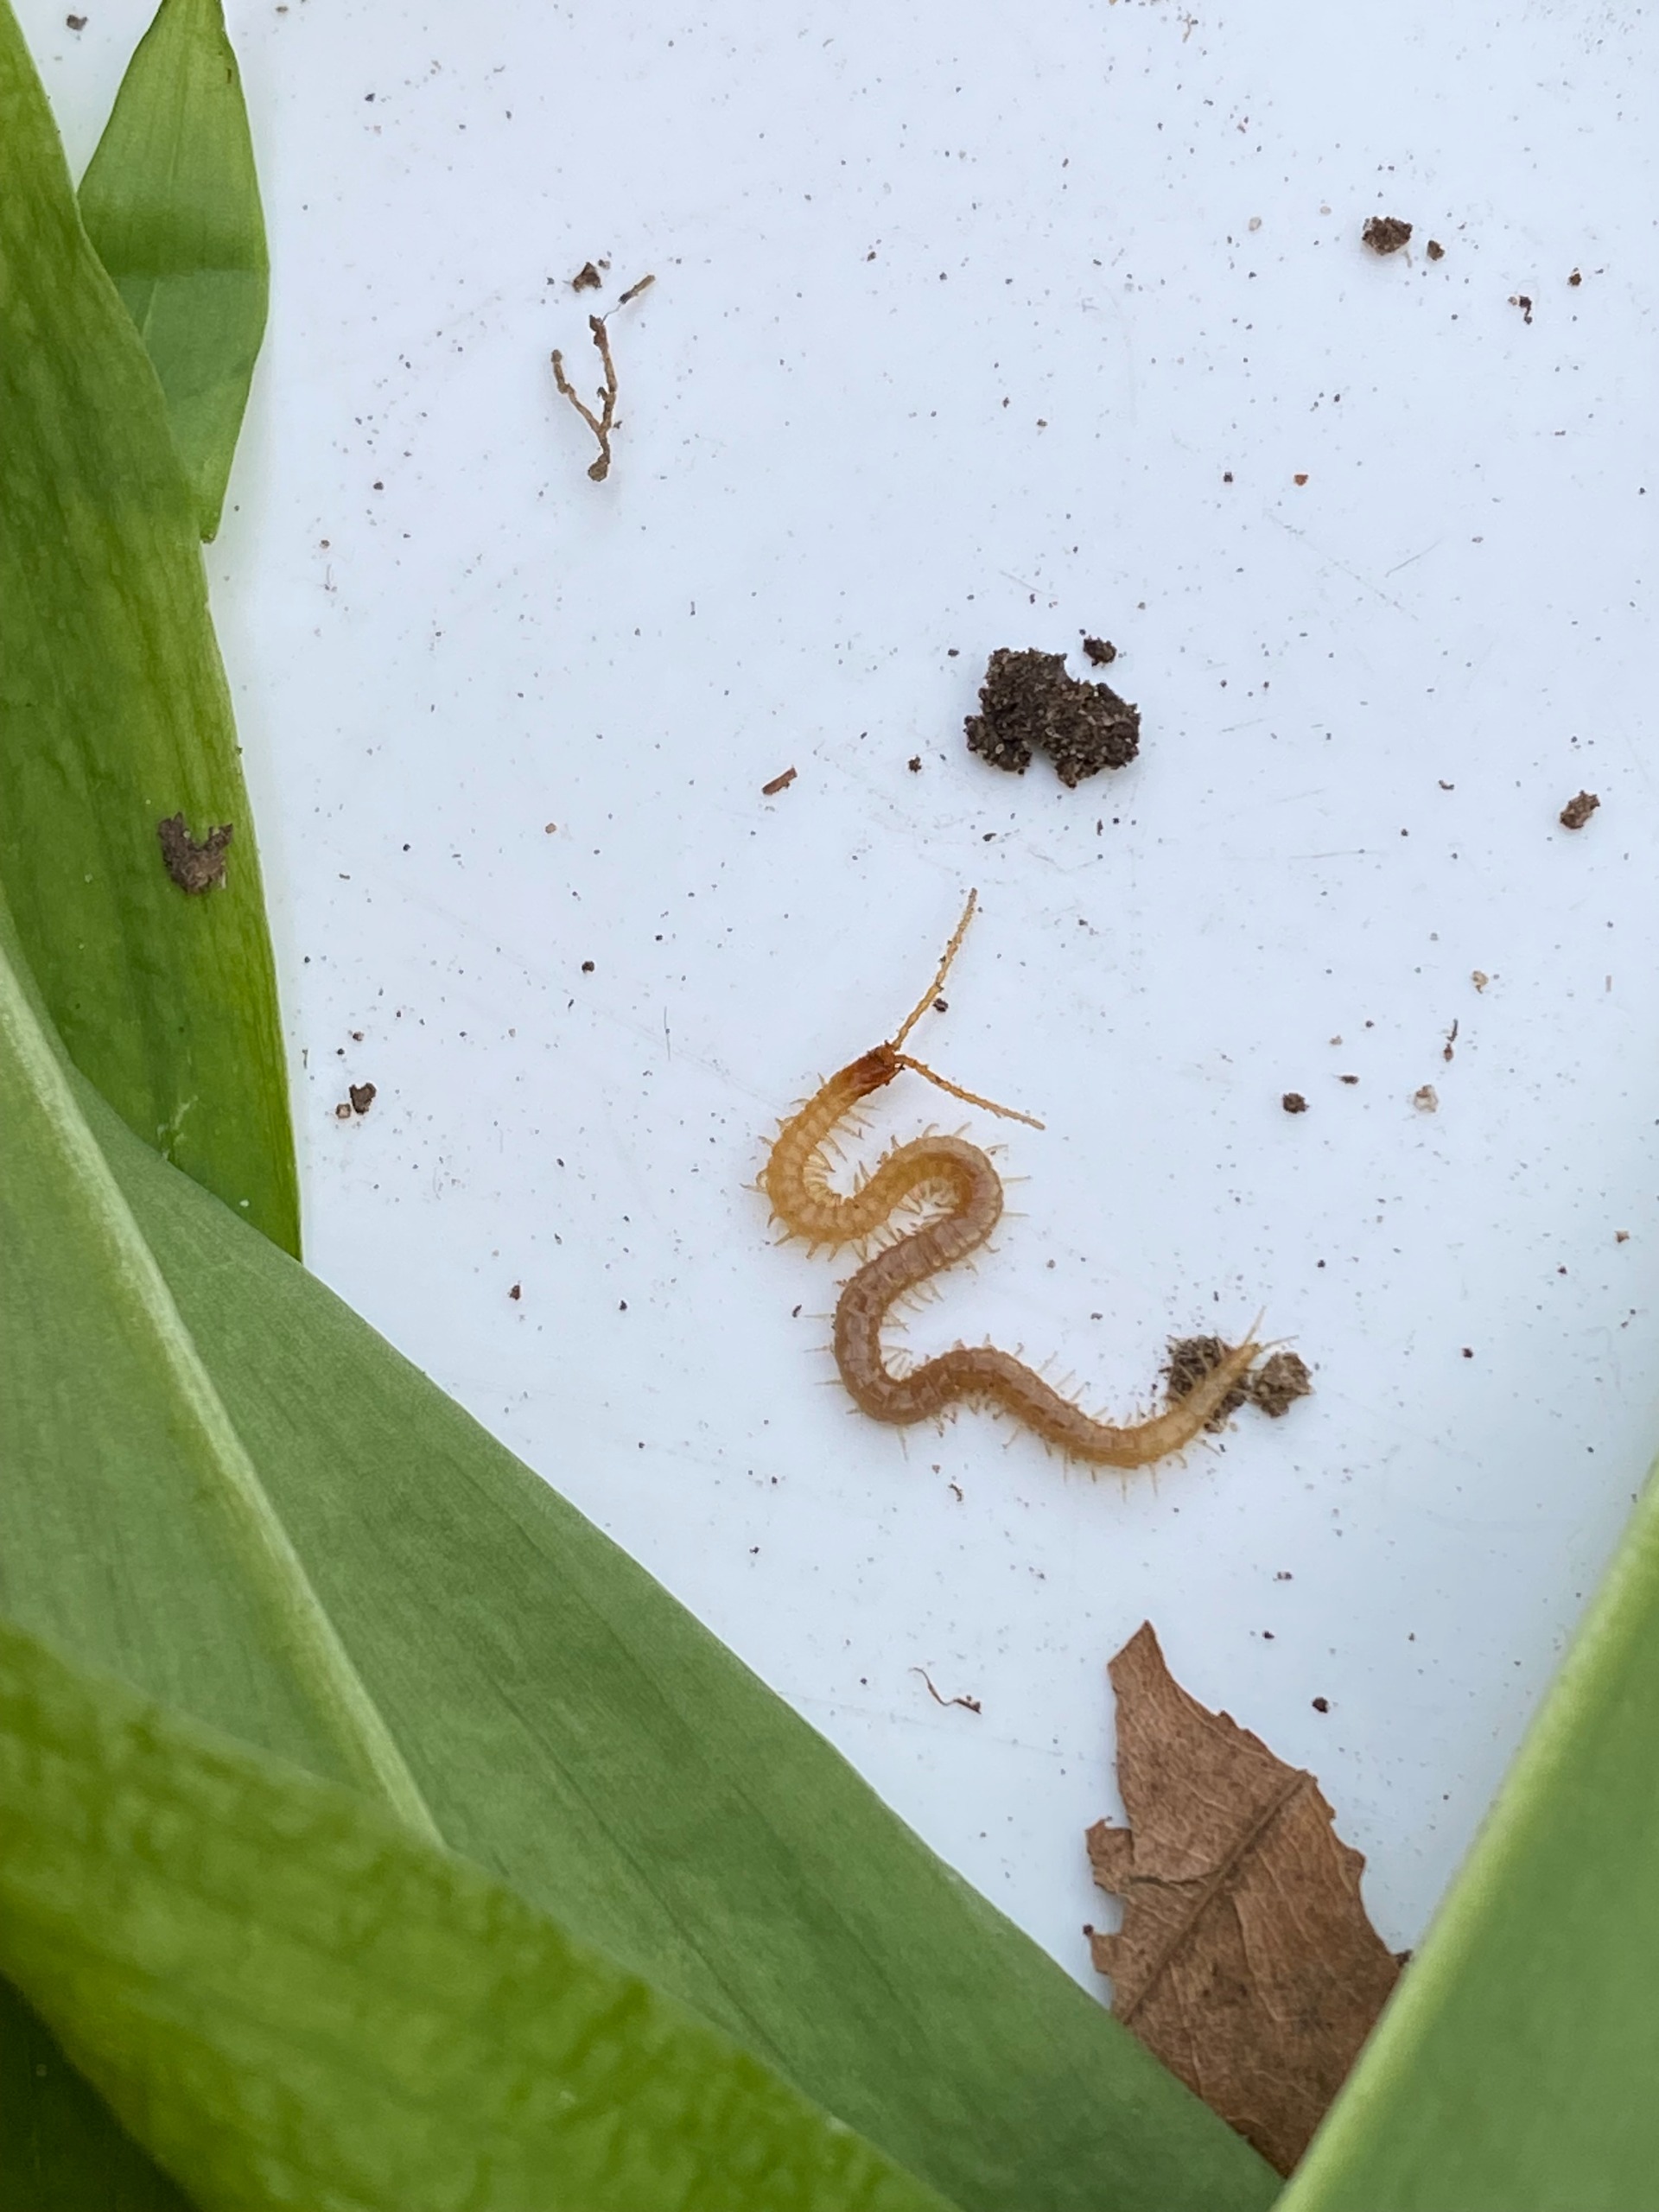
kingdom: Animalia
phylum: Arthropoda
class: Chilopoda
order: Geophilomorpha
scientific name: Geophilomorpha
